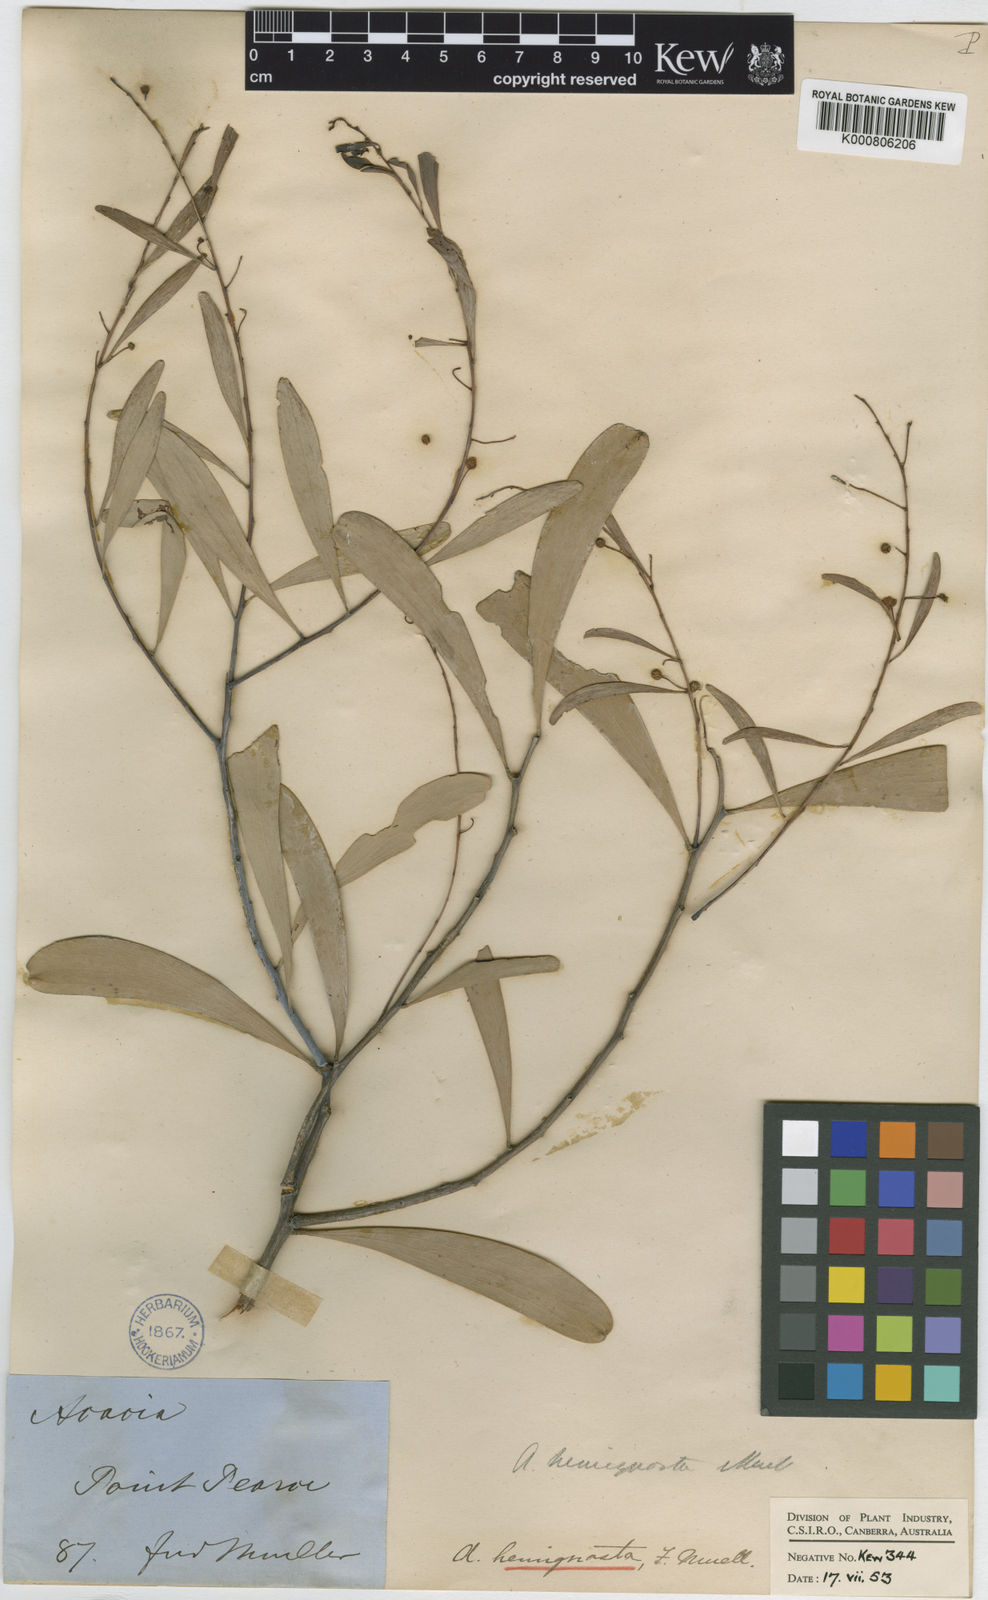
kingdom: Plantae
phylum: Tracheophyta
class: Magnoliopsida
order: Fabales
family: Fabaceae
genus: Acacia
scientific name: Acacia hemignosta
